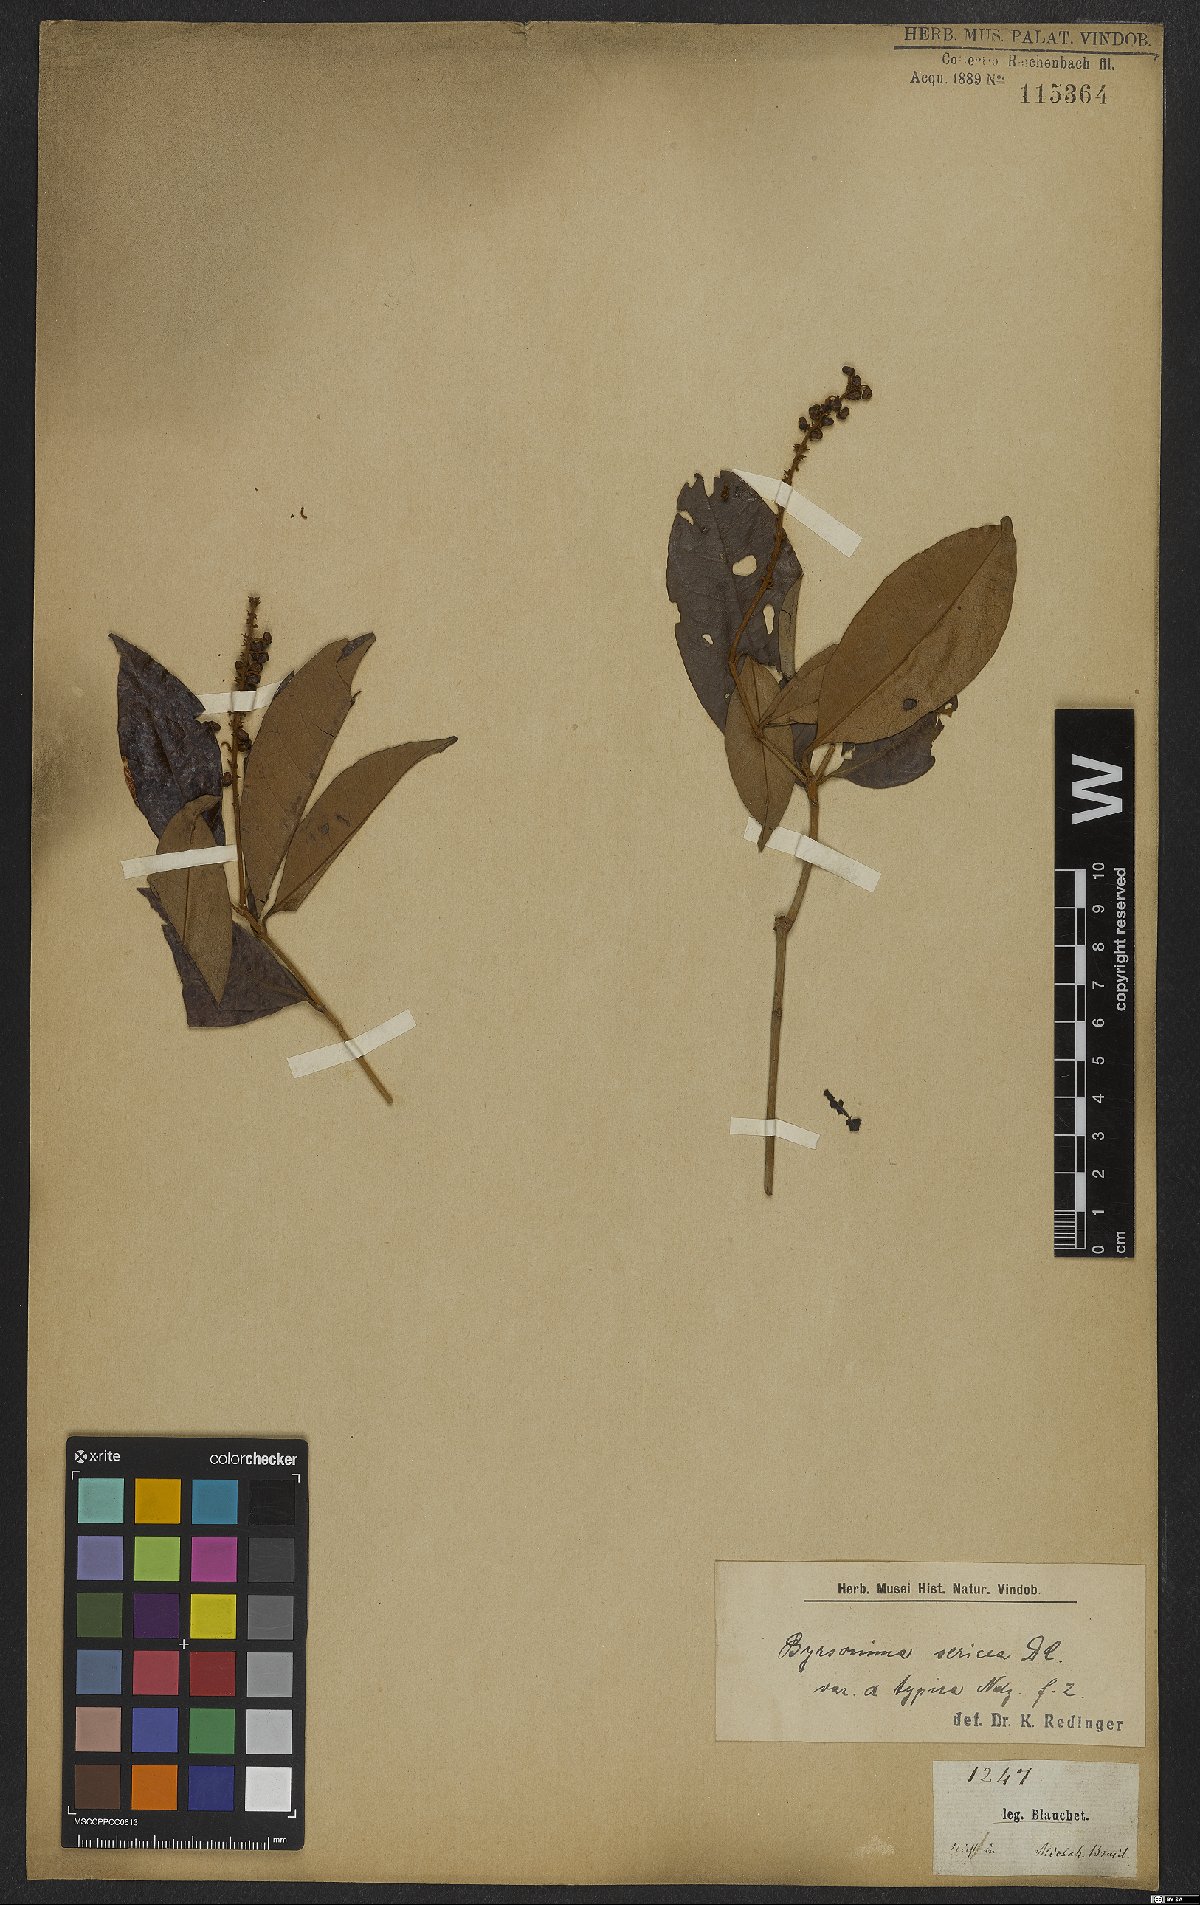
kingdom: Plantae
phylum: Tracheophyta
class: Magnoliopsida
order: Malpighiales
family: Malpighiaceae
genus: Byrsonima
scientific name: Byrsonima sericea
